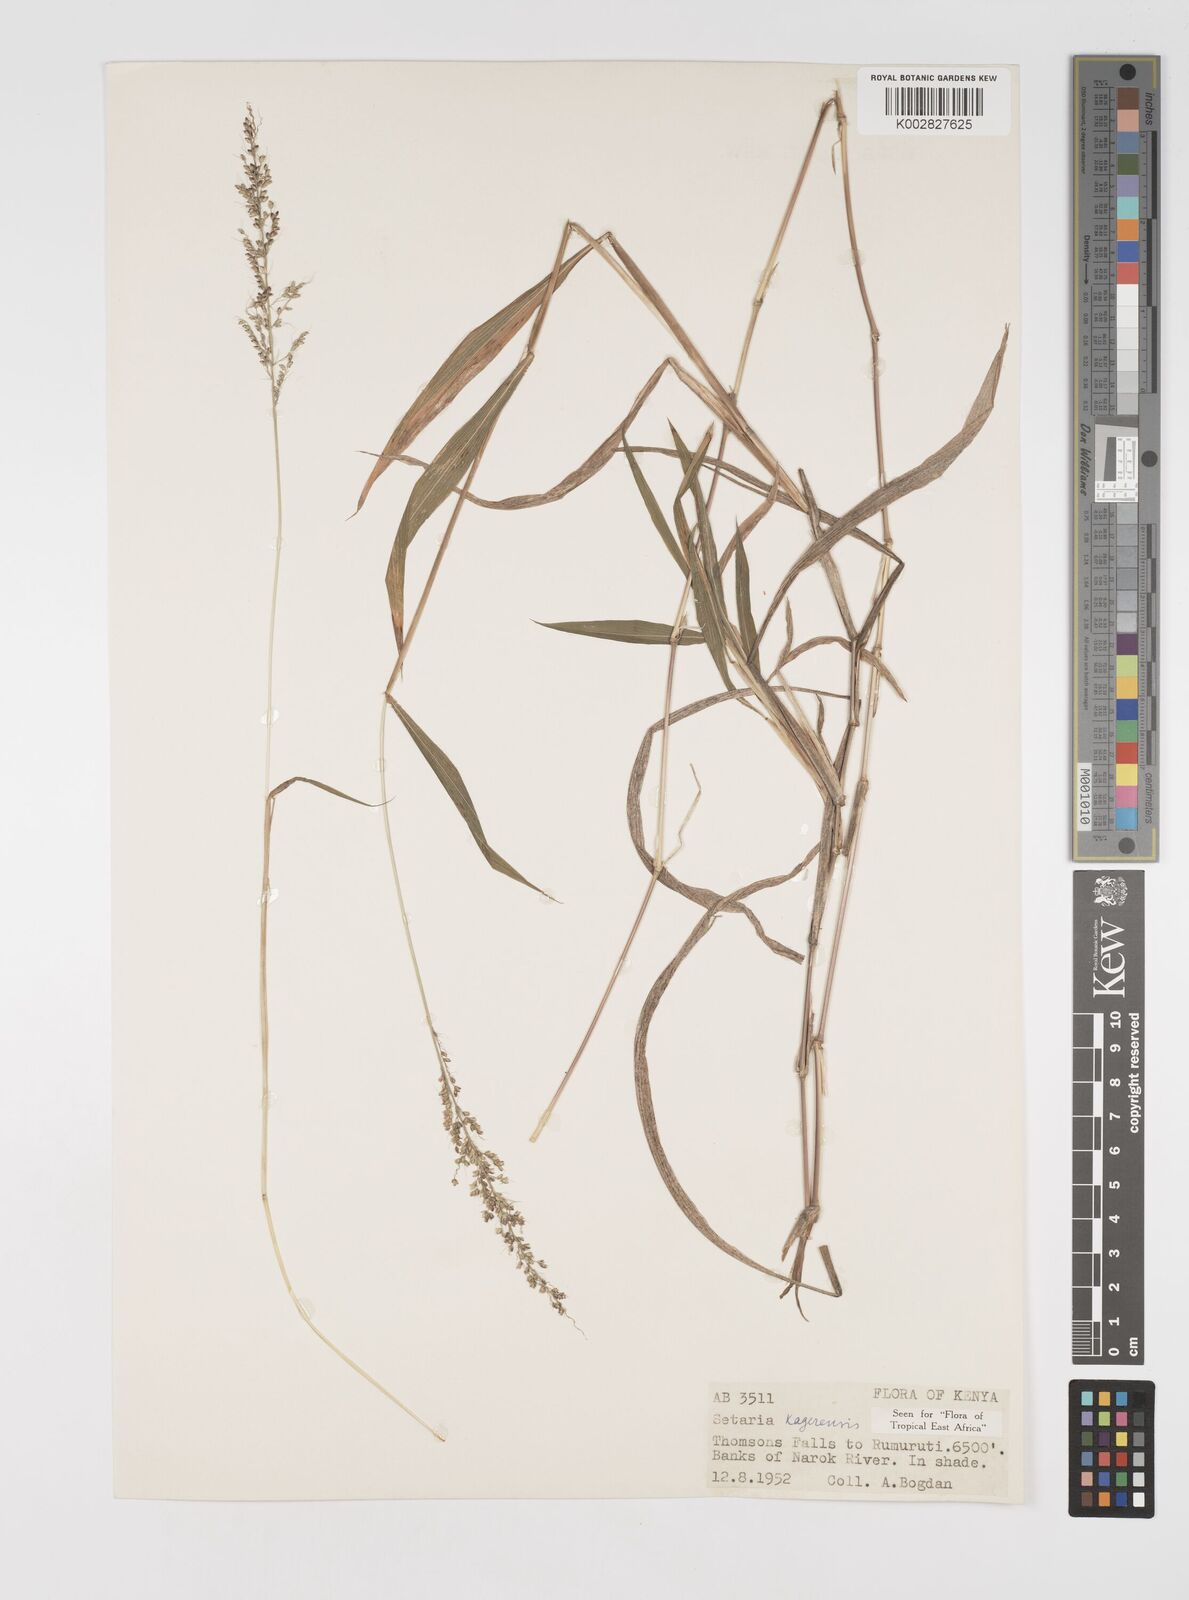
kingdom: Plantae
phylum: Tracheophyta
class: Liliopsida
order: Poales
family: Poaceae
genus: Setaria
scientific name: Setaria kagerensis
